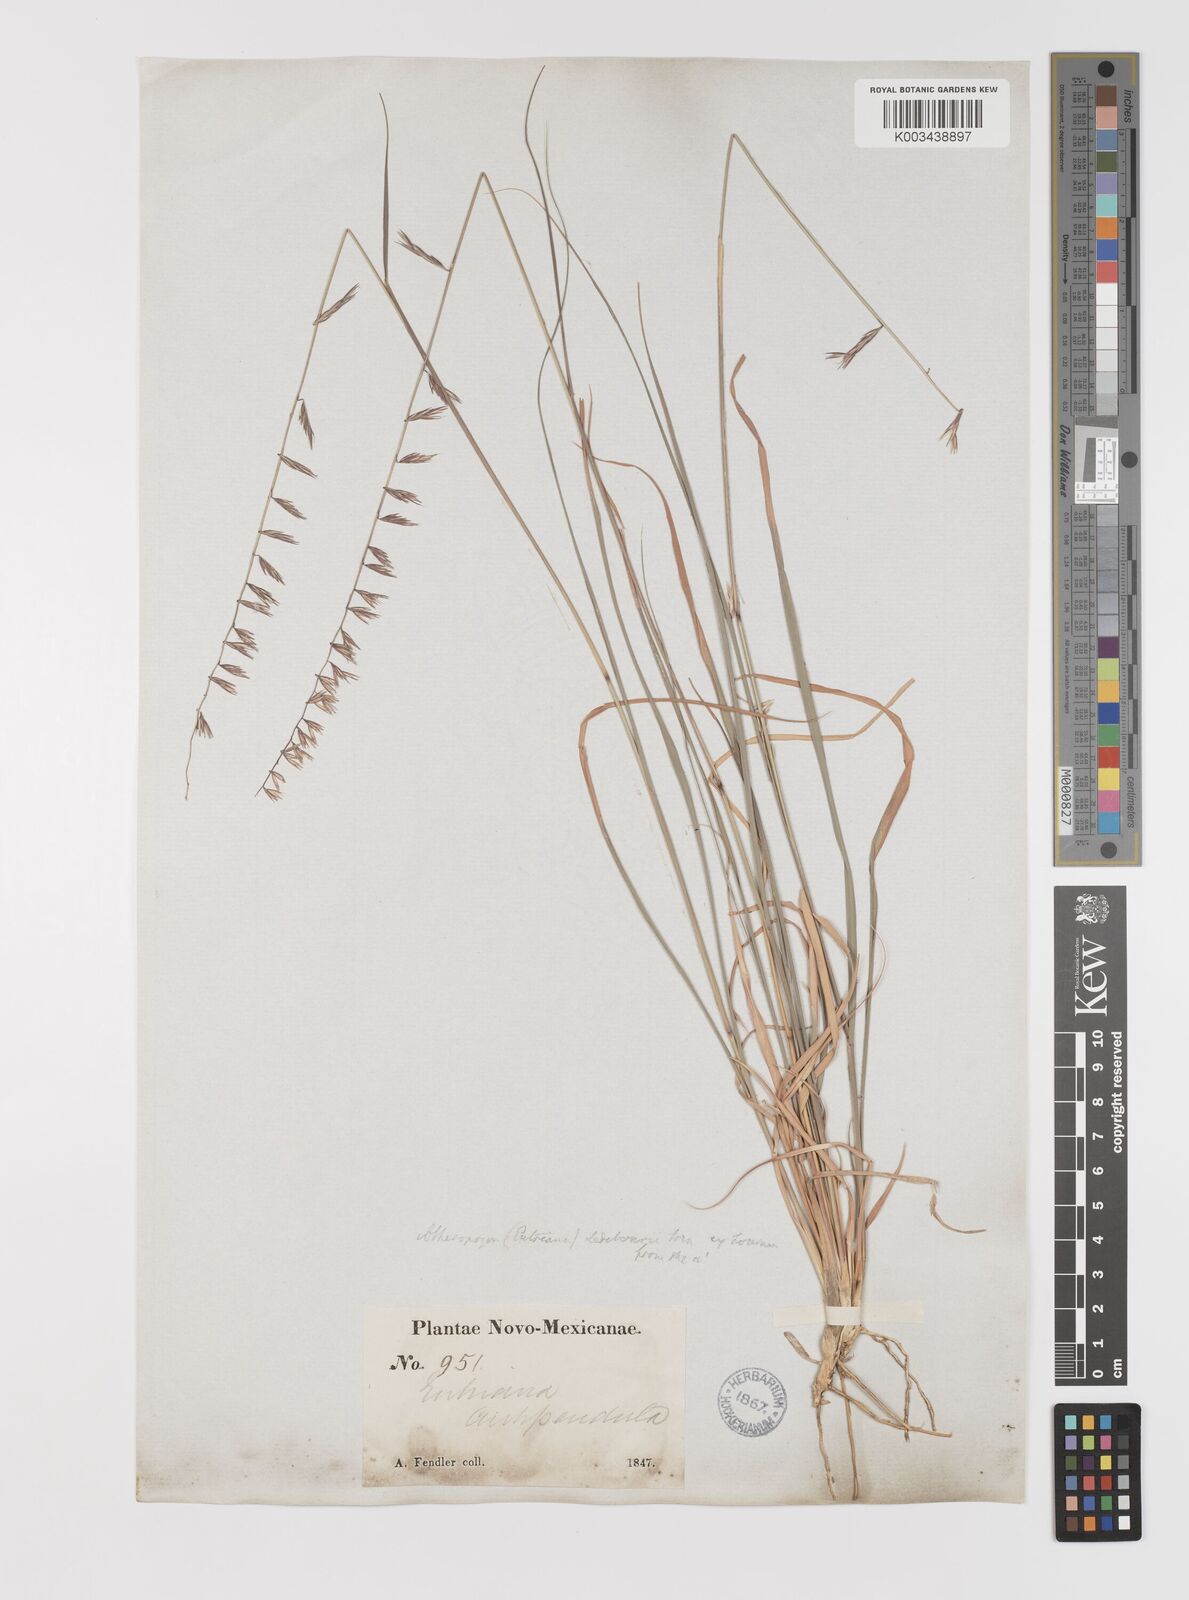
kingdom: Plantae
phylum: Tracheophyta
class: Liliopsida
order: Poales
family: Poaceae
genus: Bouteloua
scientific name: Bouteloua curtipendula
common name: Side-oats grama
